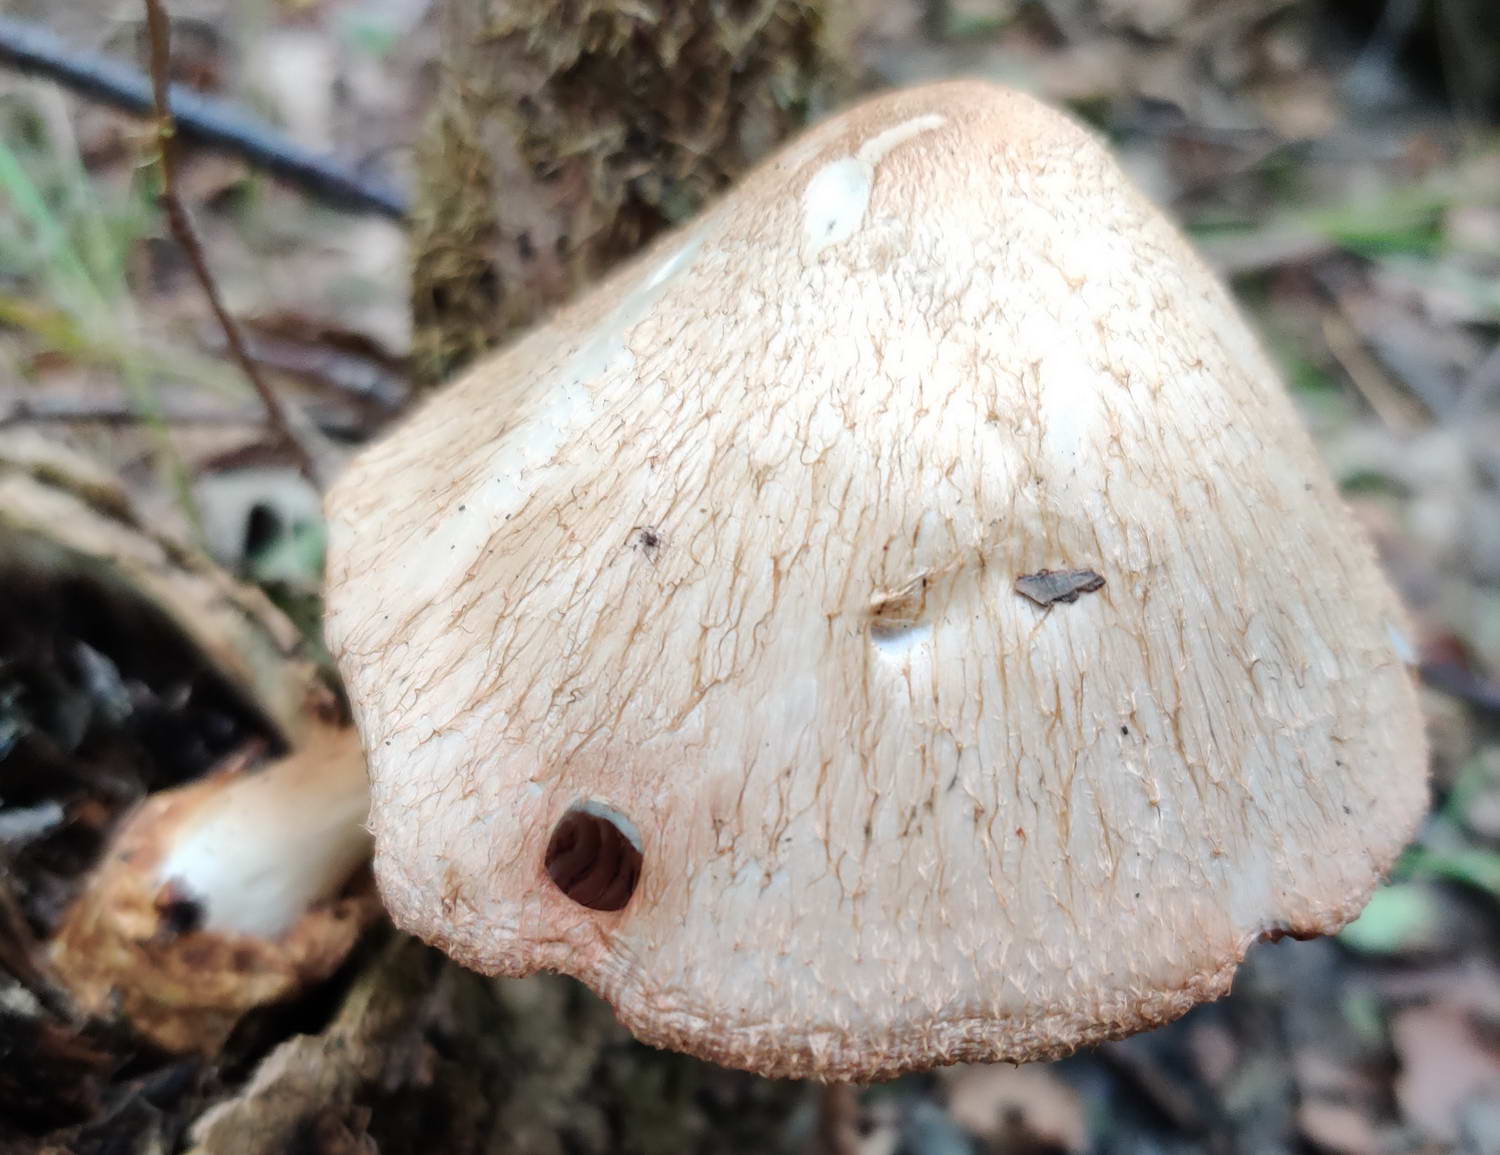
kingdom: Fungi
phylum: Basidiomycota
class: Agaricomycetes
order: Agaricales
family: Pluteaceae
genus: Volvariella
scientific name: Volvariella bombycina
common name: silkehåret posesvamp
